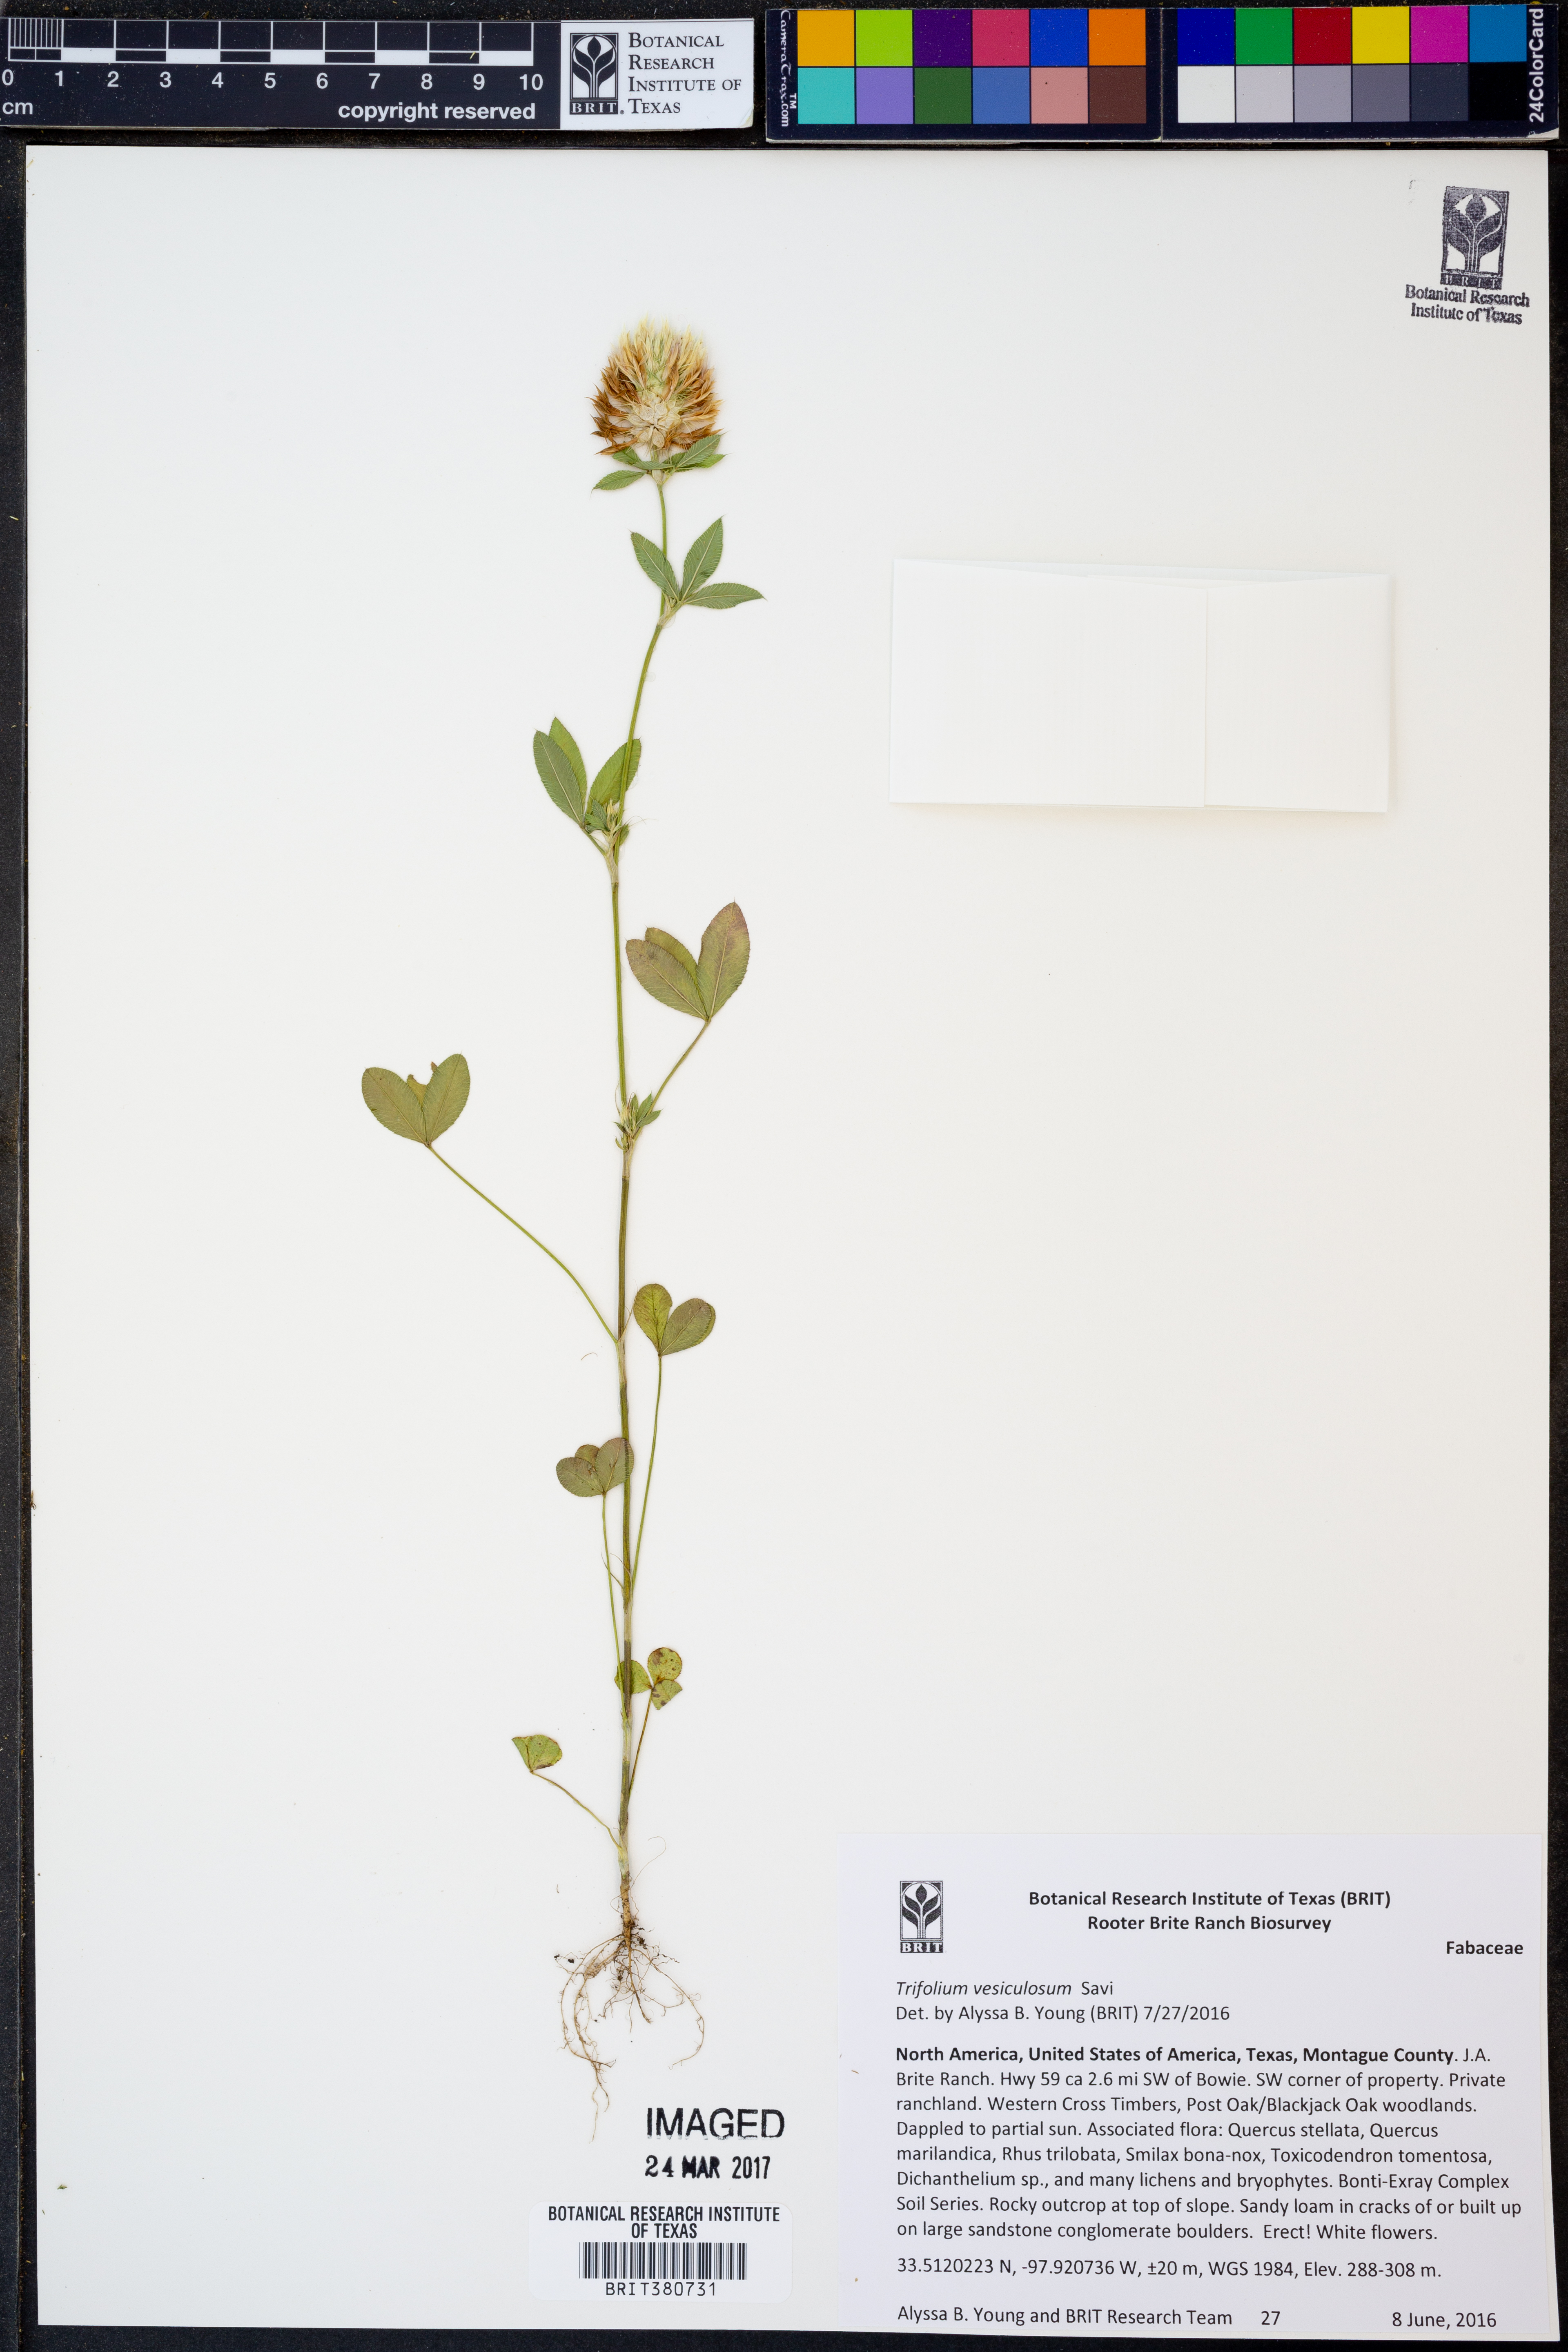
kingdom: Plantae
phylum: Tracheophyta
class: Magnoliopsida
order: Fabales
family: Fabaceae
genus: Trifolium
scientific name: Trifolium vesiculosum
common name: Arrowleaf clover
